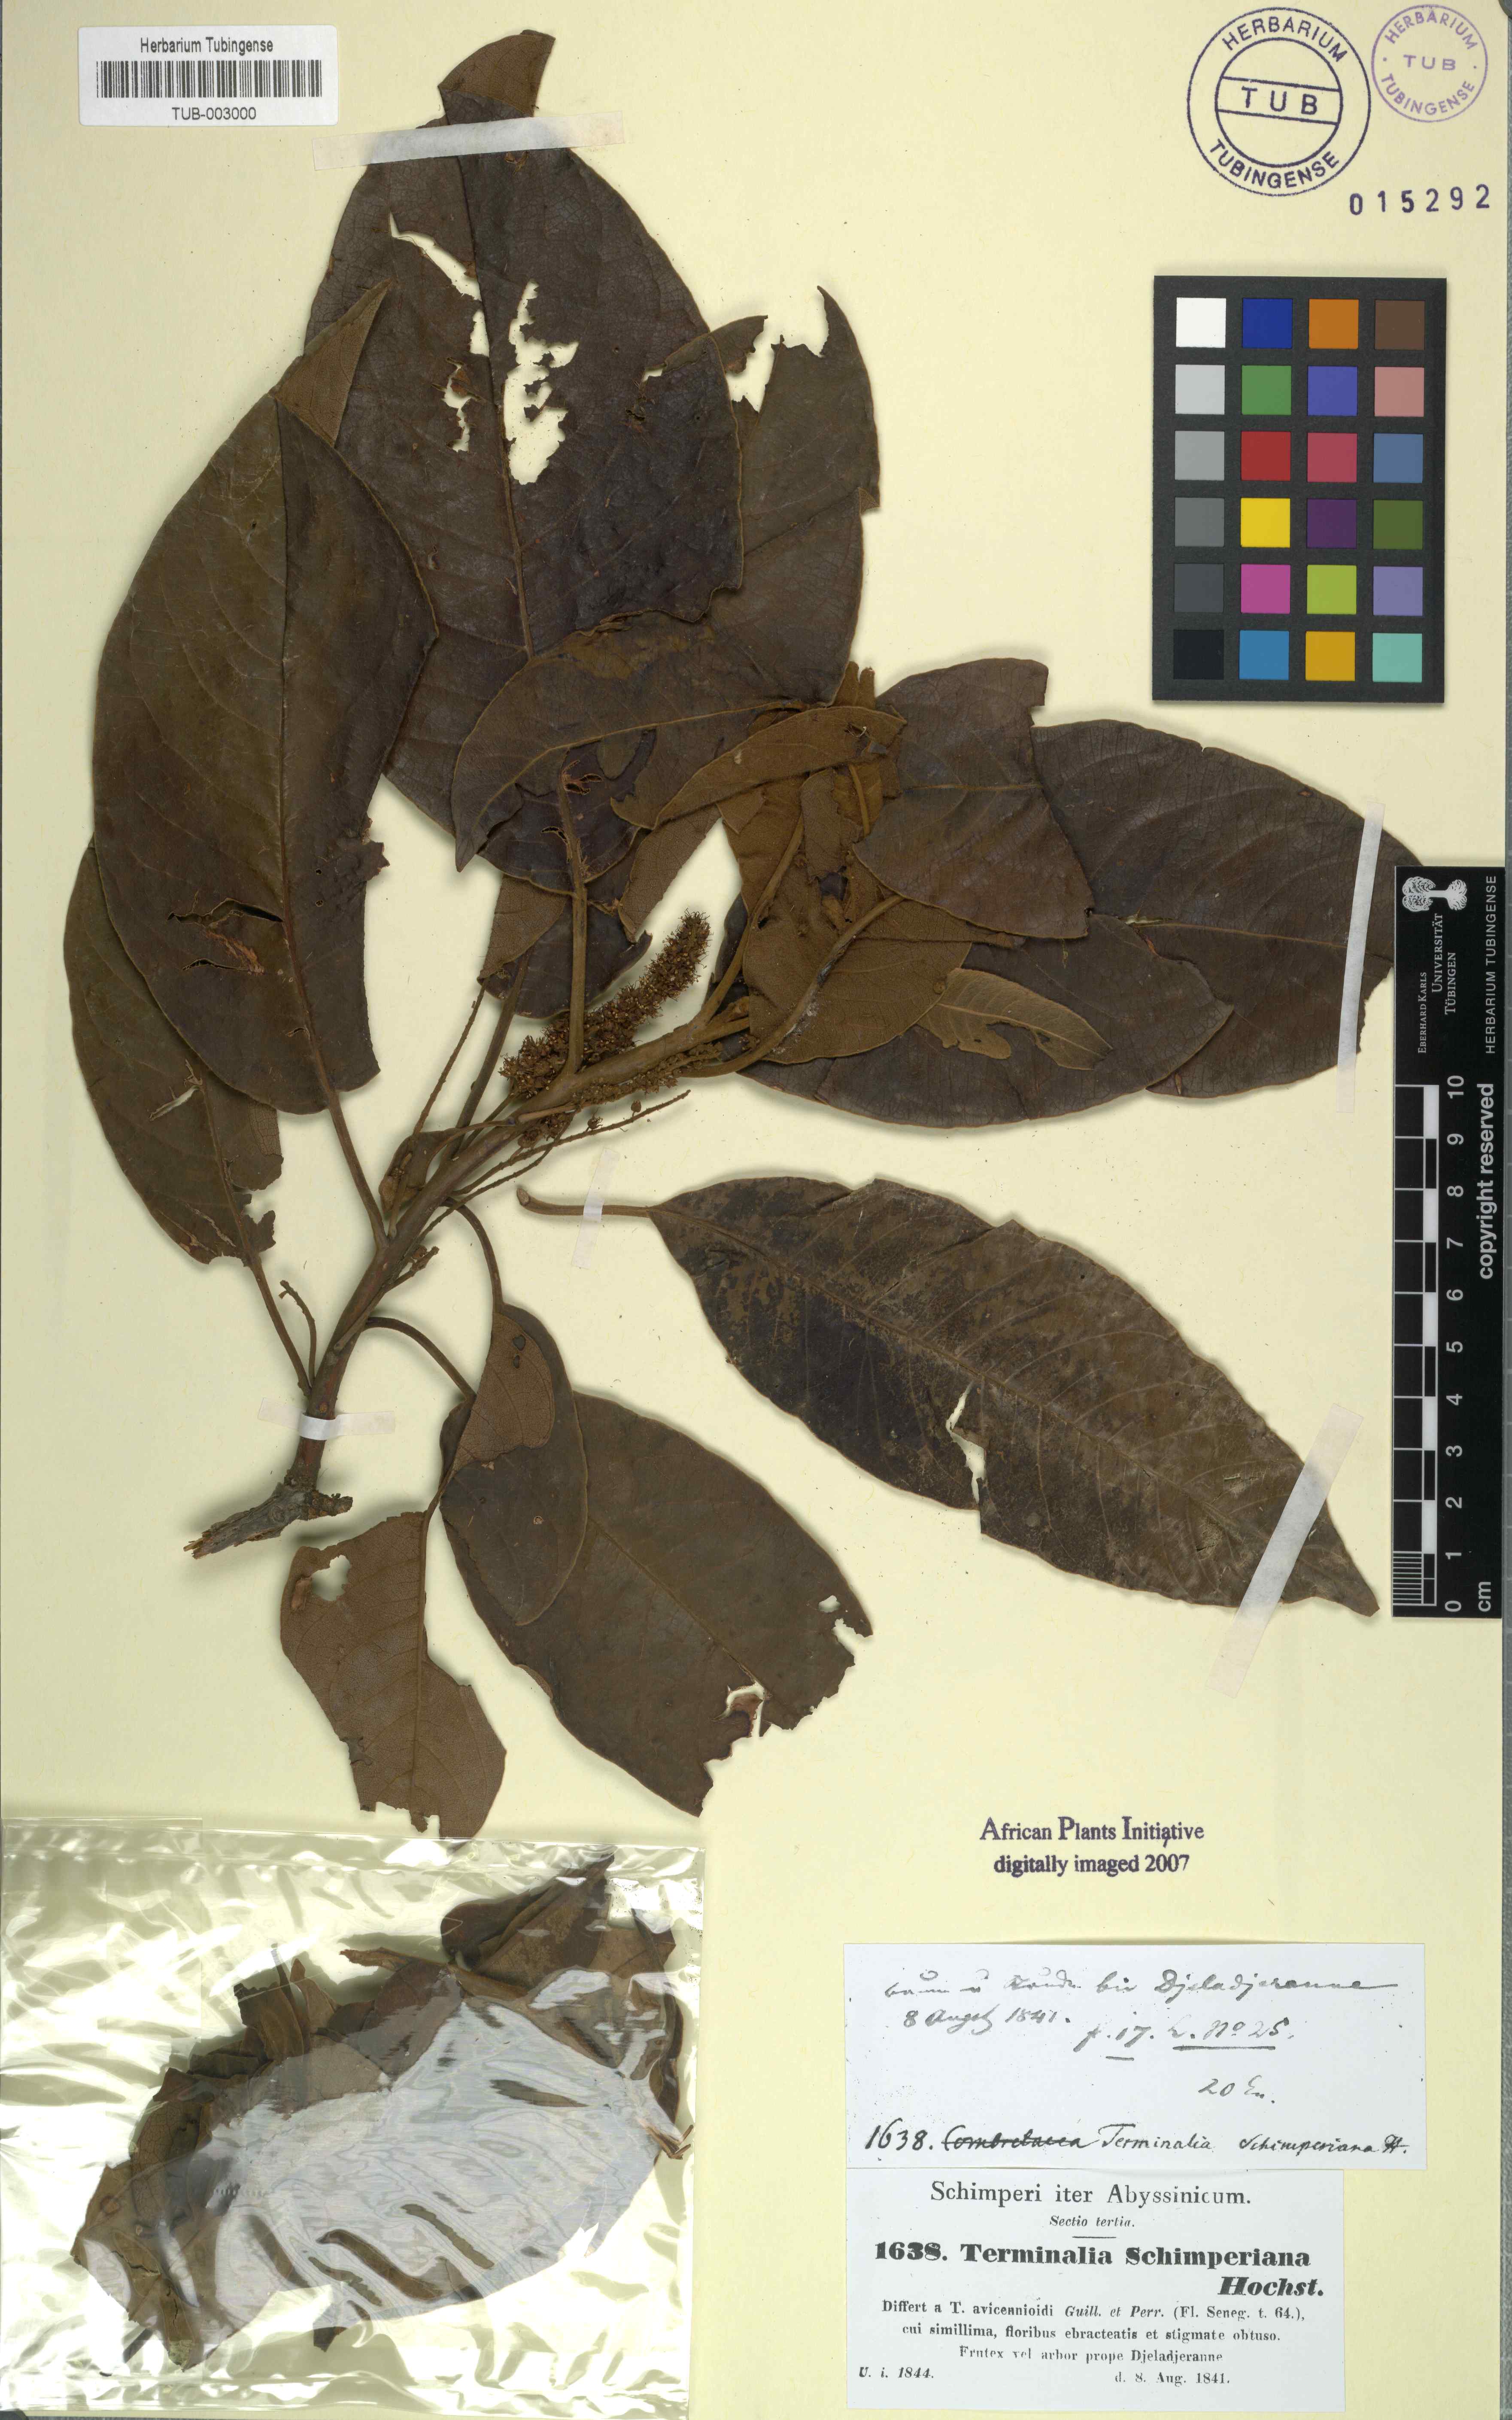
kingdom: Plantae
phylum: Tracheophyta
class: Magnoliopsida
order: Myrtales
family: Combretaceae
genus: Terminalia
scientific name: Terminalia avicennioides
